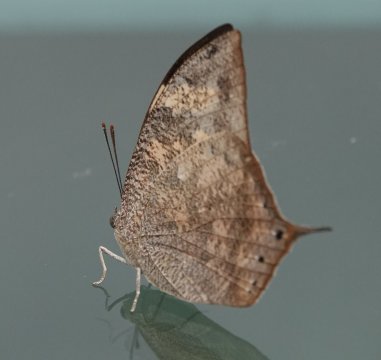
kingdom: Animalia
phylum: Arthropoda
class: Insecta
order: Lepidoptera
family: Nymphalidae
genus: Anaea
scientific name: Anaea arginussa
